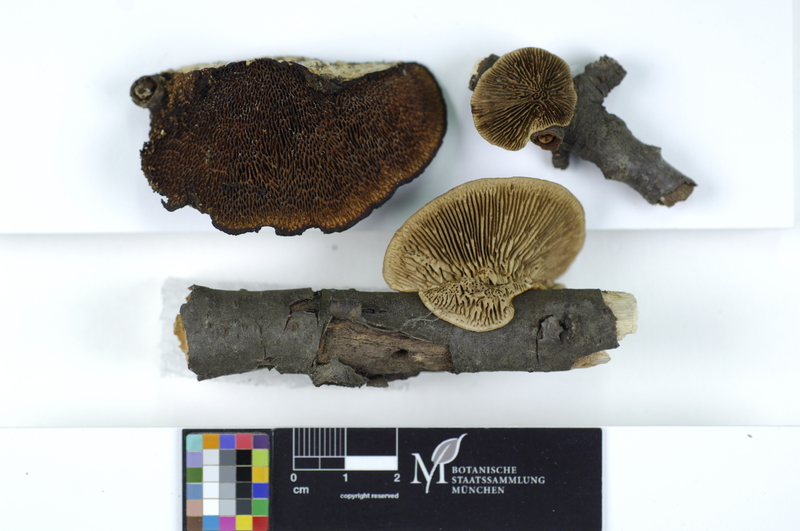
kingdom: Plantae
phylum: Tracheophyta
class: Magnoliopsida
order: Rosales
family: Rosaceae
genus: Prunus
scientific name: Prunus avium
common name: Sweet cherry
